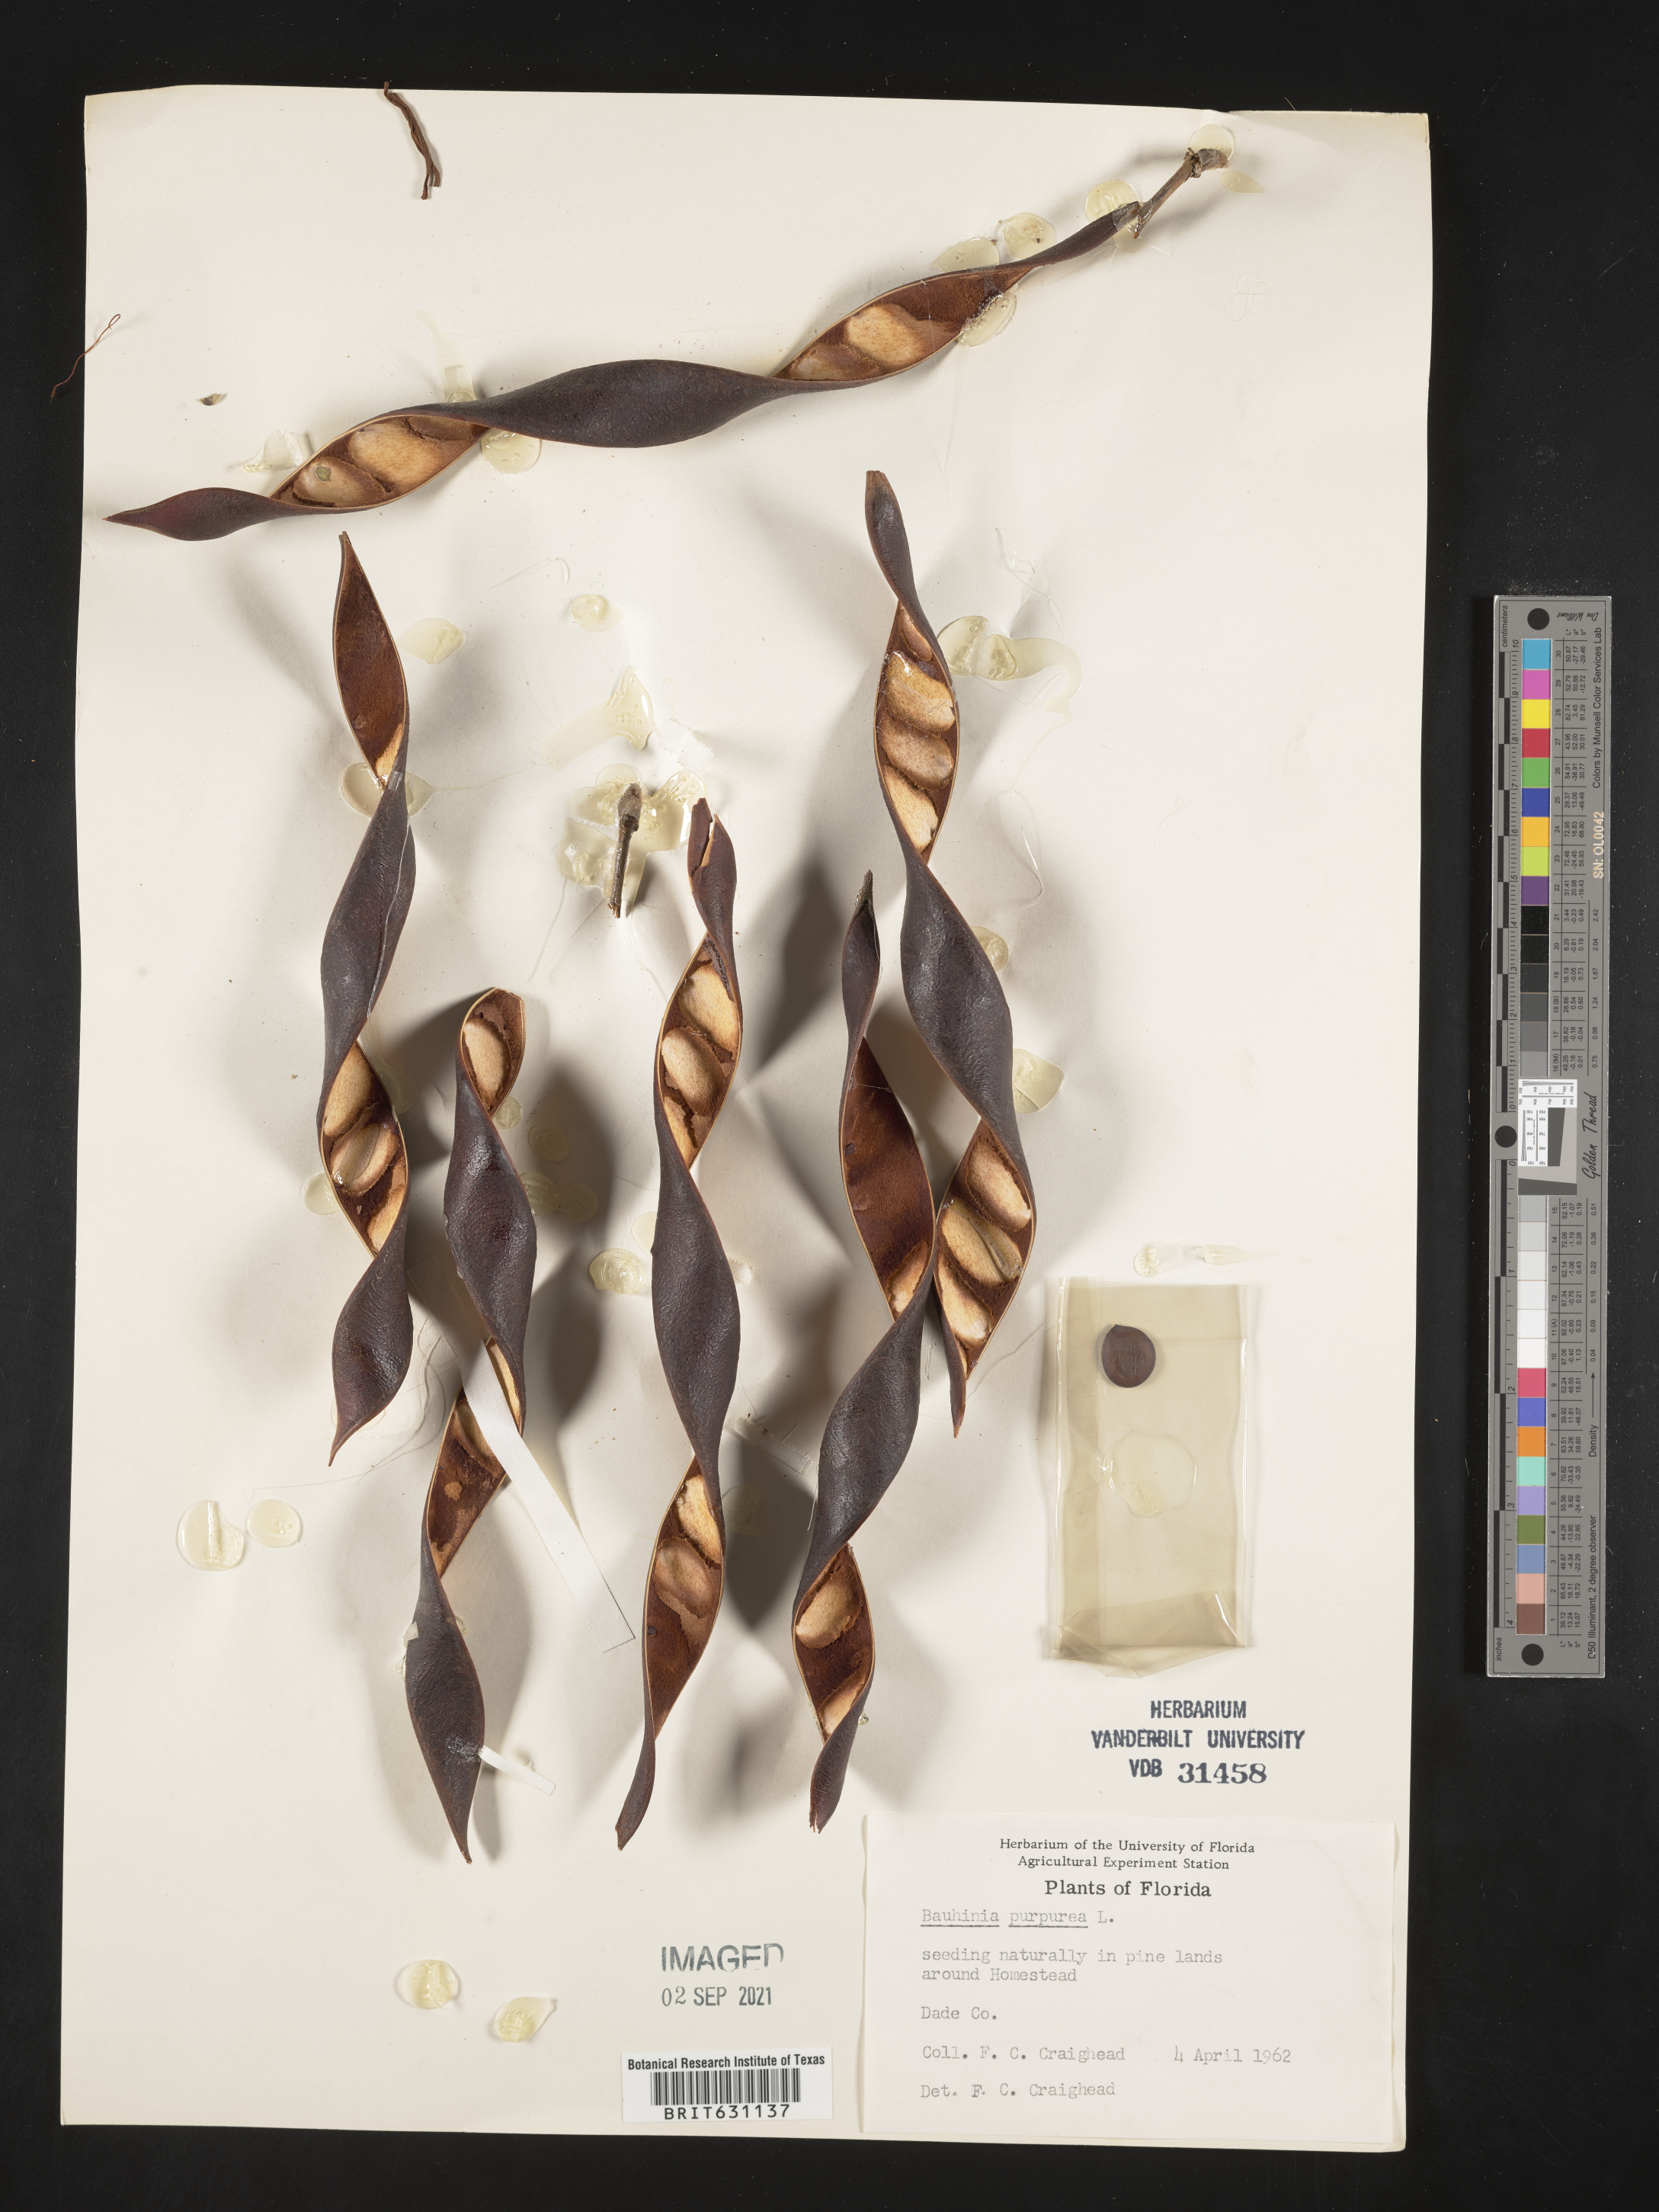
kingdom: Plantae
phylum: Tracheophyta
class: Magnoliopsida
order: Fabales
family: Fabaceae
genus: Bauhinia
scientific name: Bauhinia
